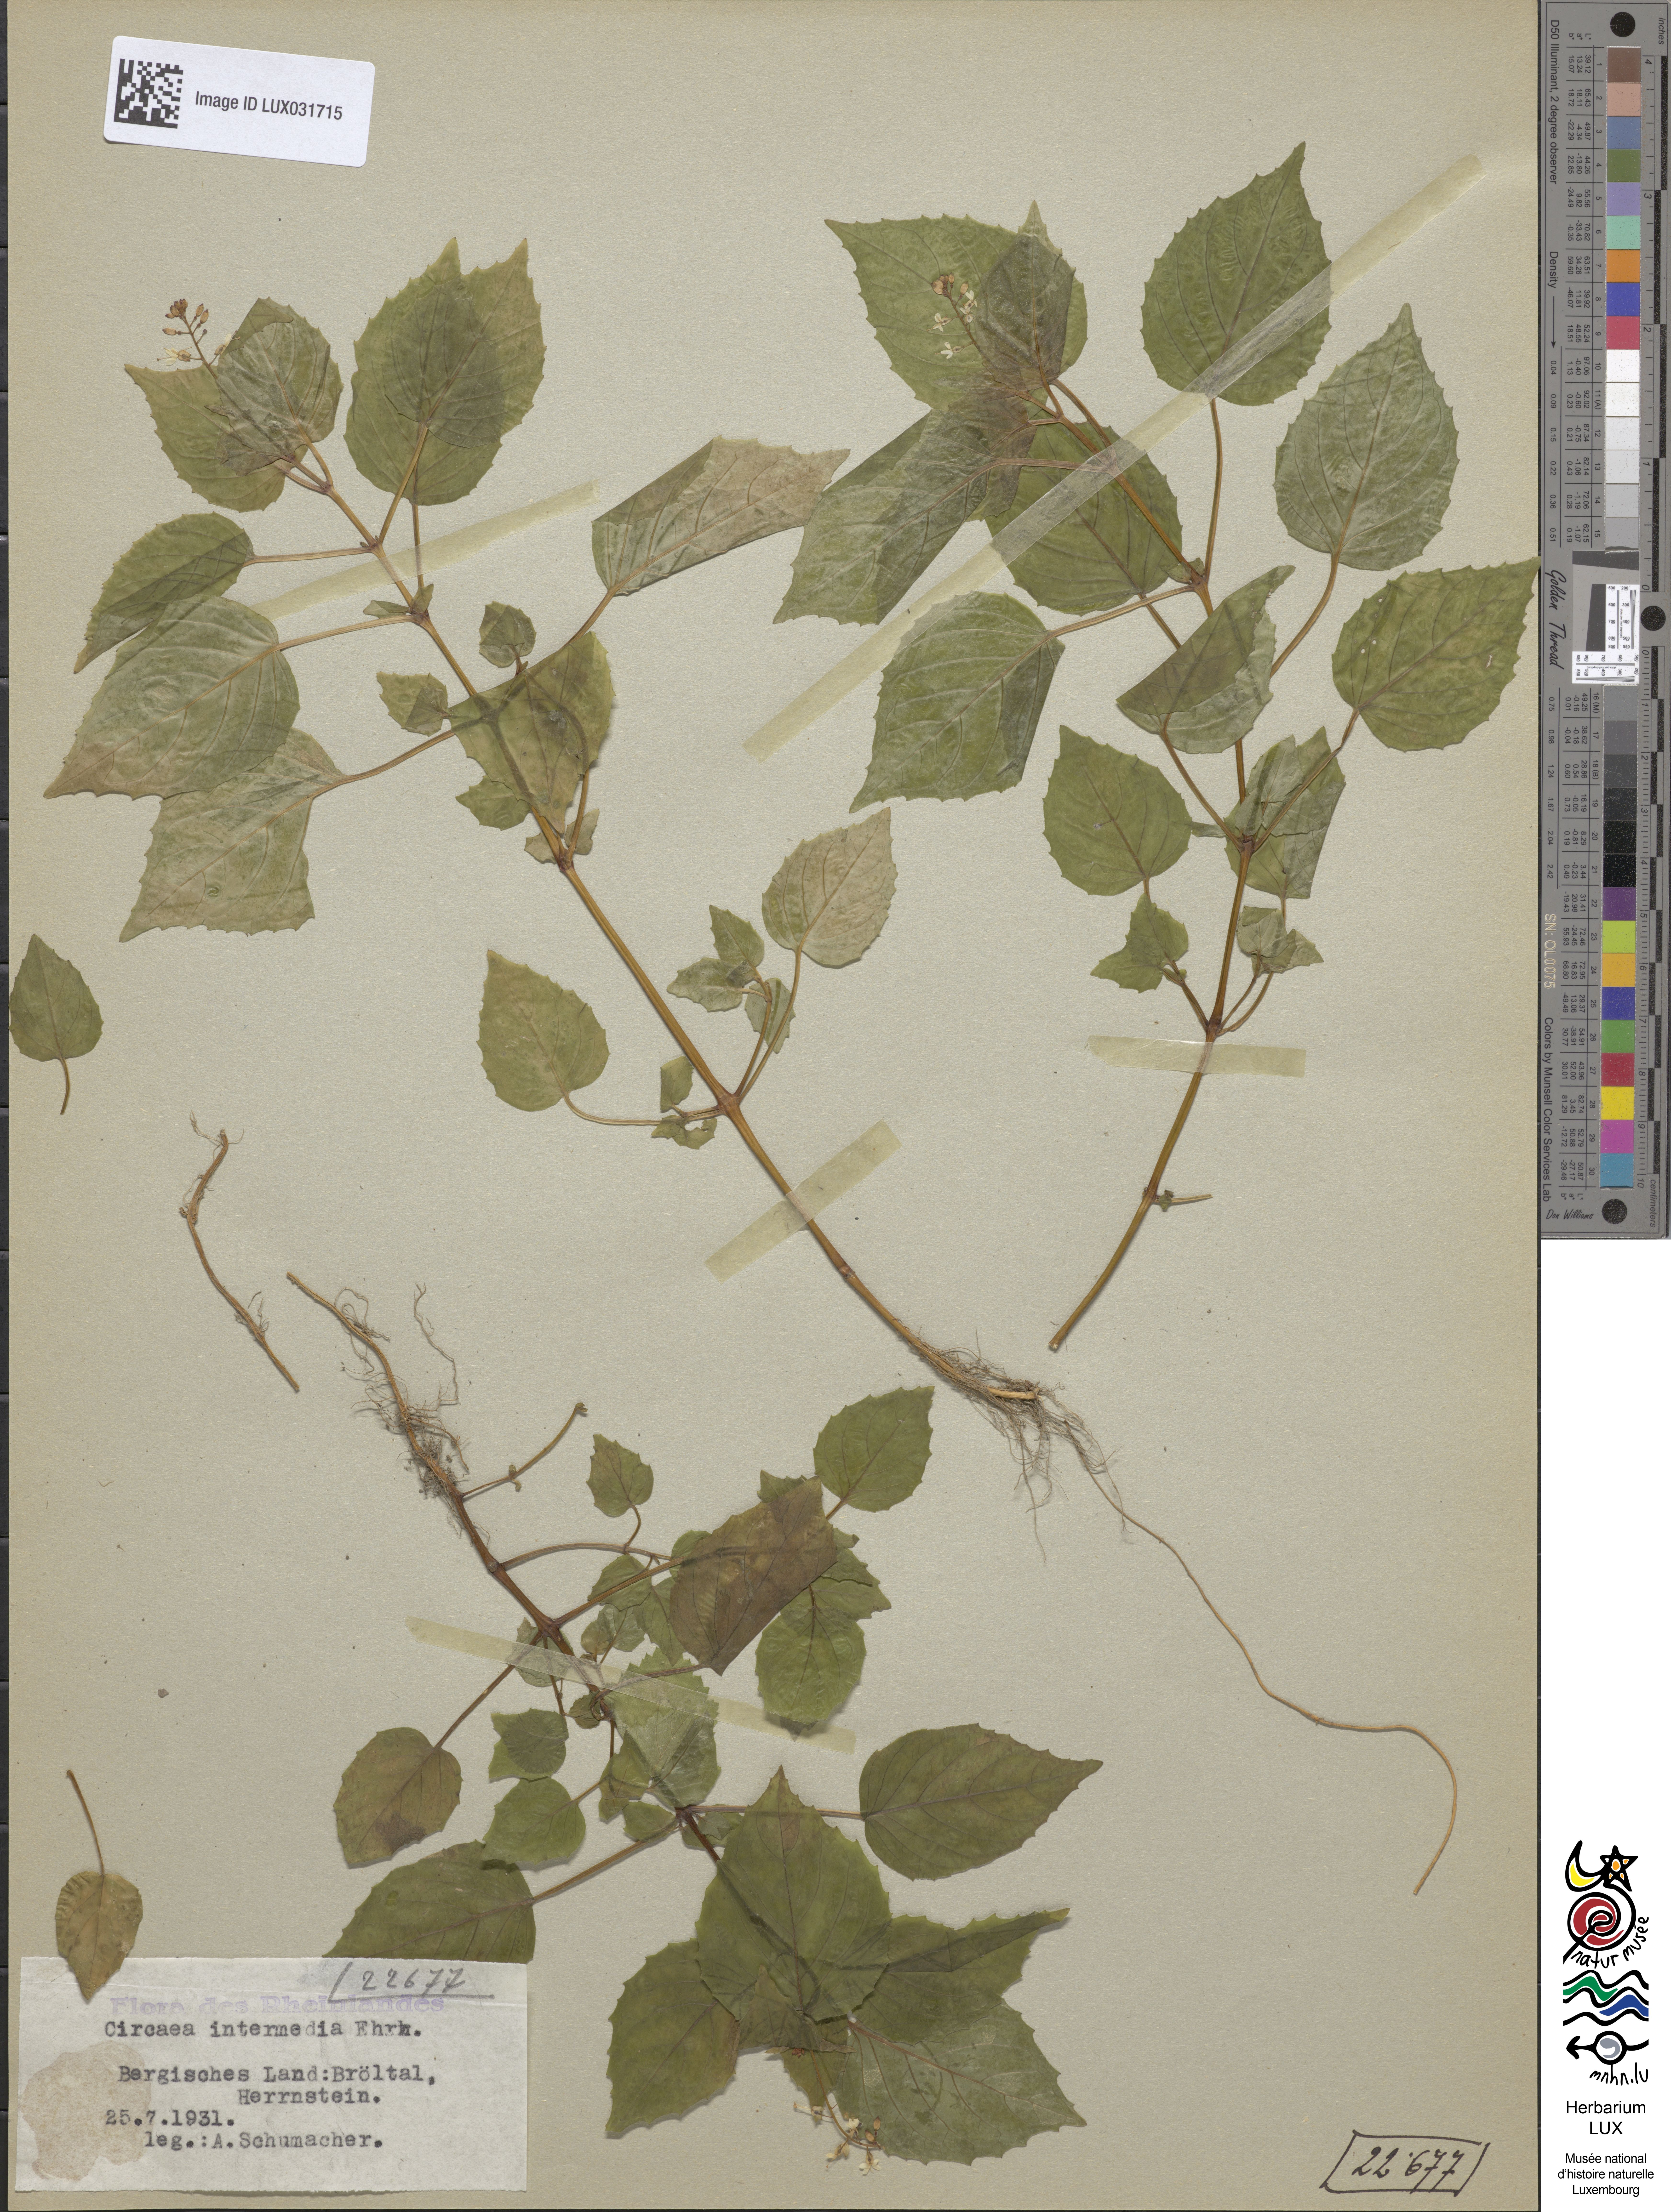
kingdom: Plantae
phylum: Tracheophyta
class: Magnoliopsida
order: Myrtales
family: Onagraceae
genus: Circaea
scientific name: Circaea intermedia
